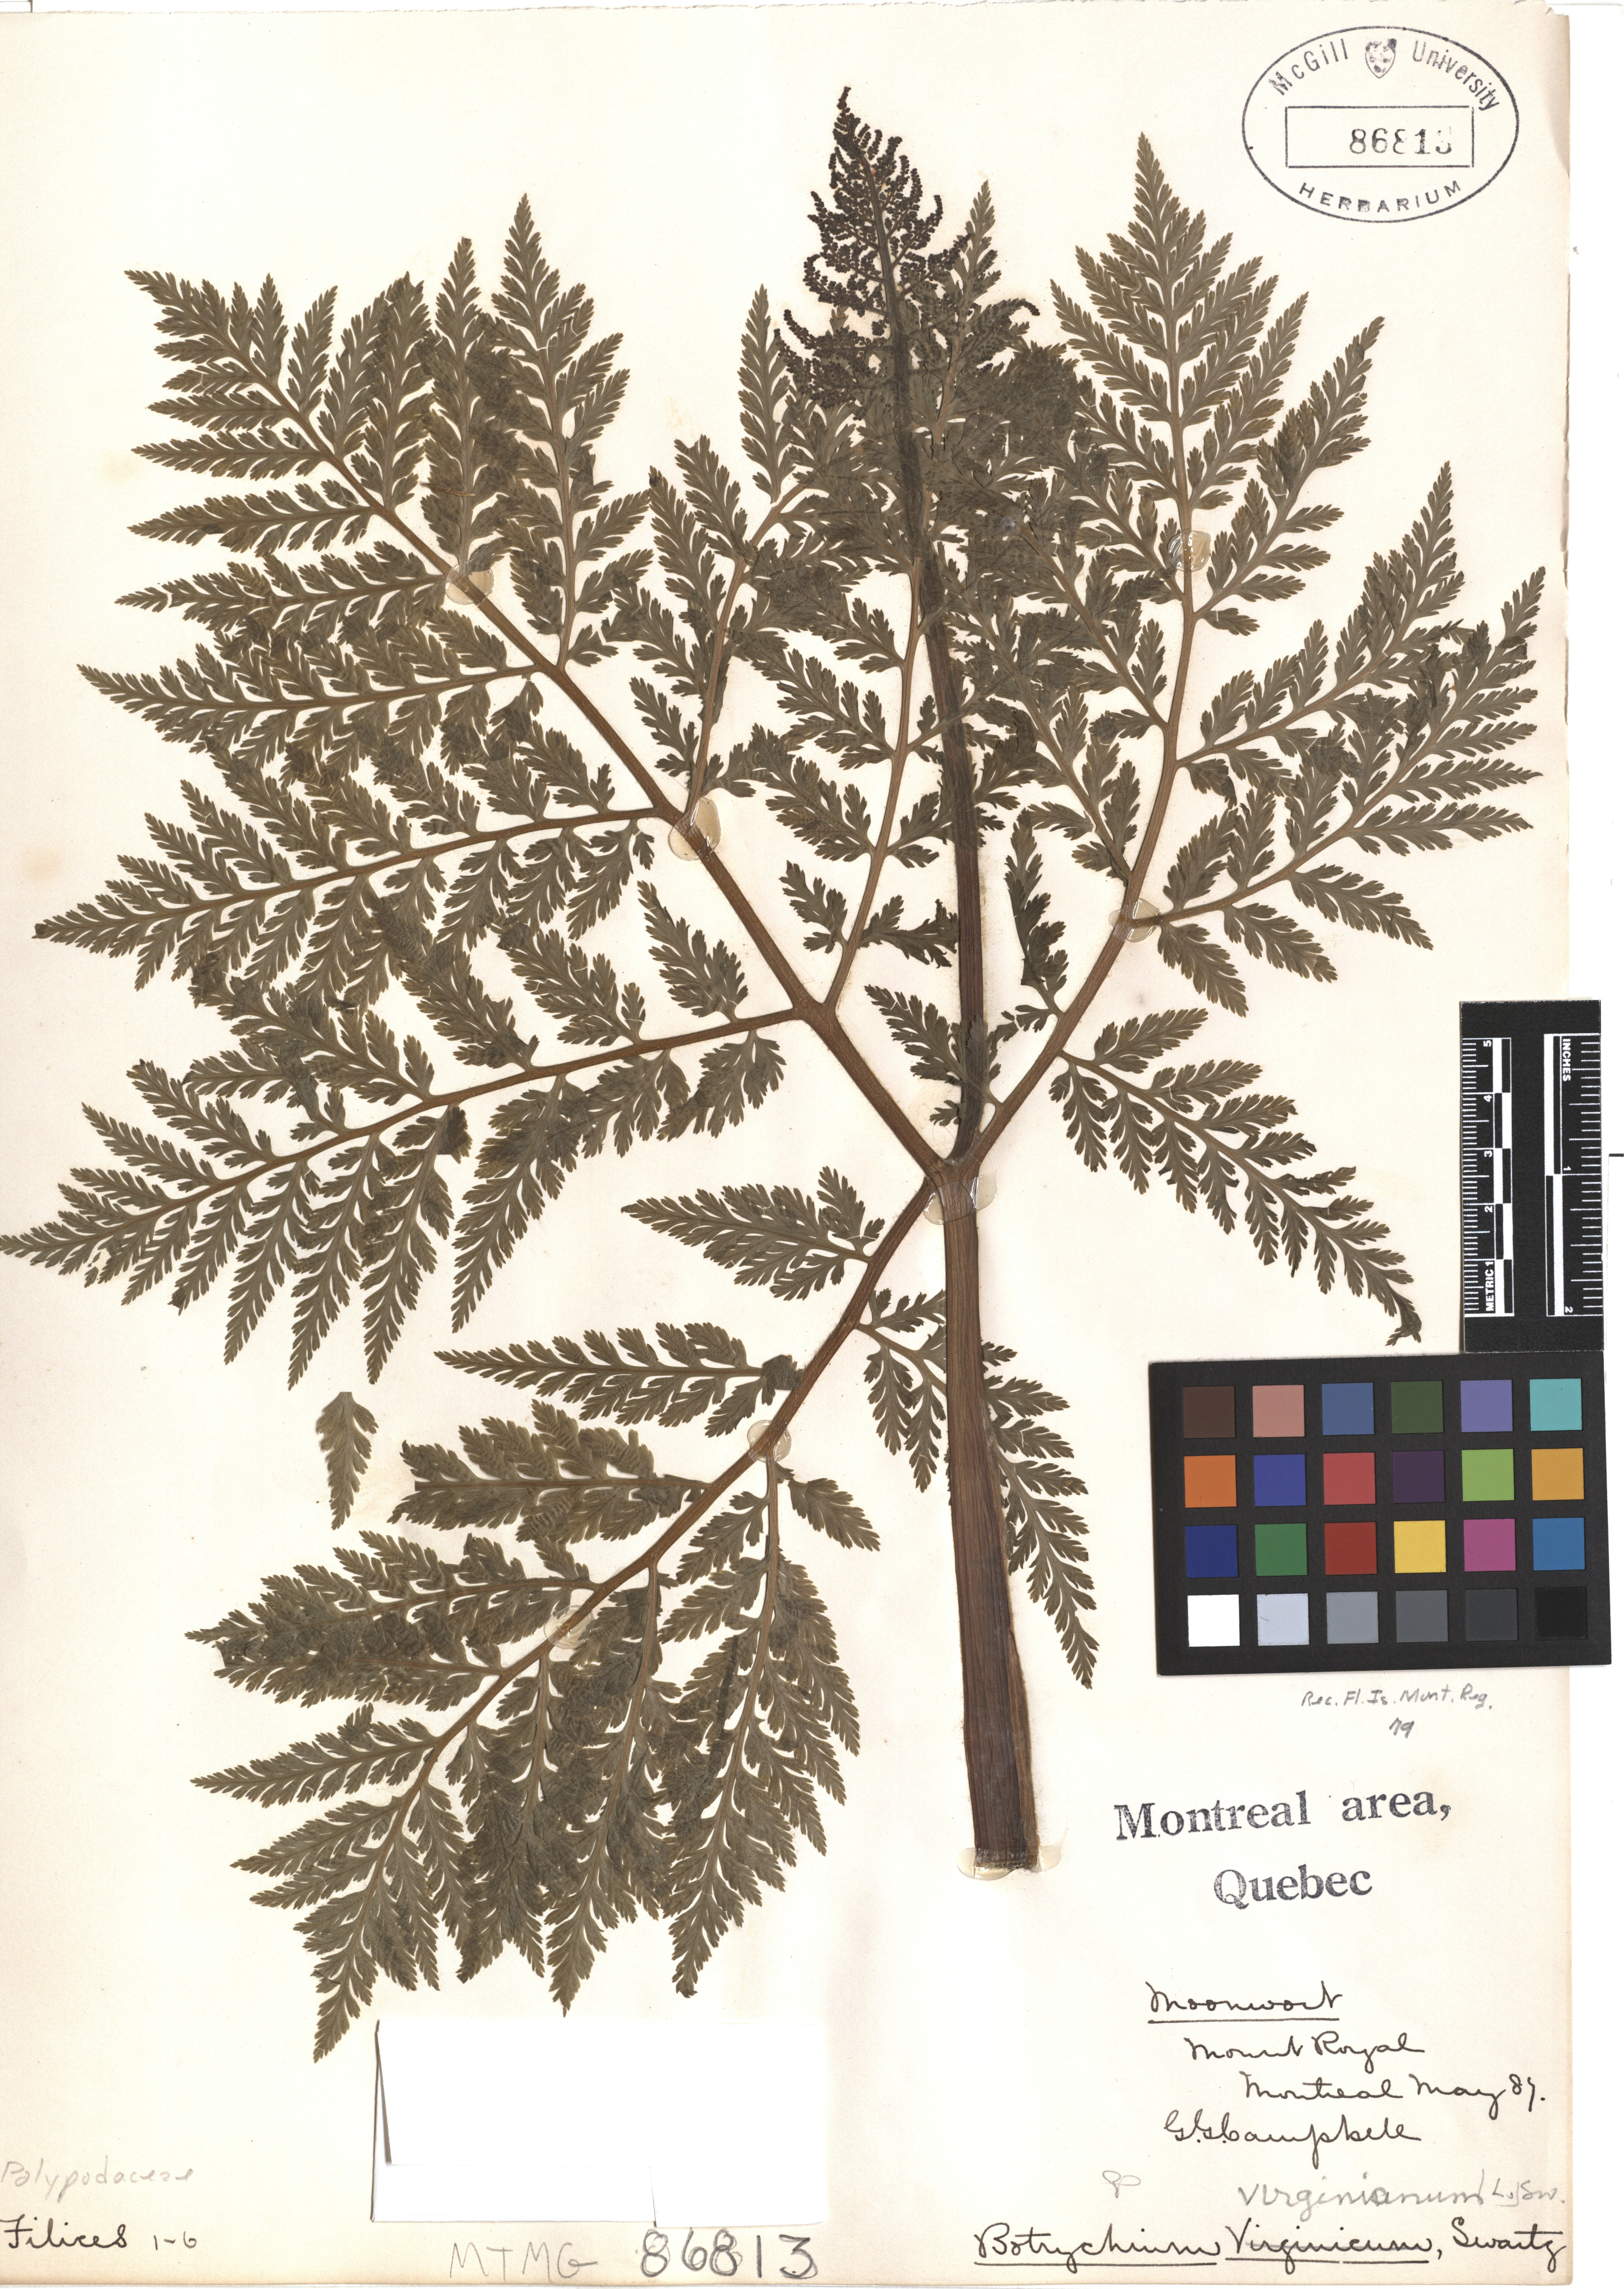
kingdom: Plantae
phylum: Tracheophyta
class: Polypodiopsida
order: Ophioglossales
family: Ophioglossaceae
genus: Botrypus
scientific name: Botrypus virginianus
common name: Common grapefern
